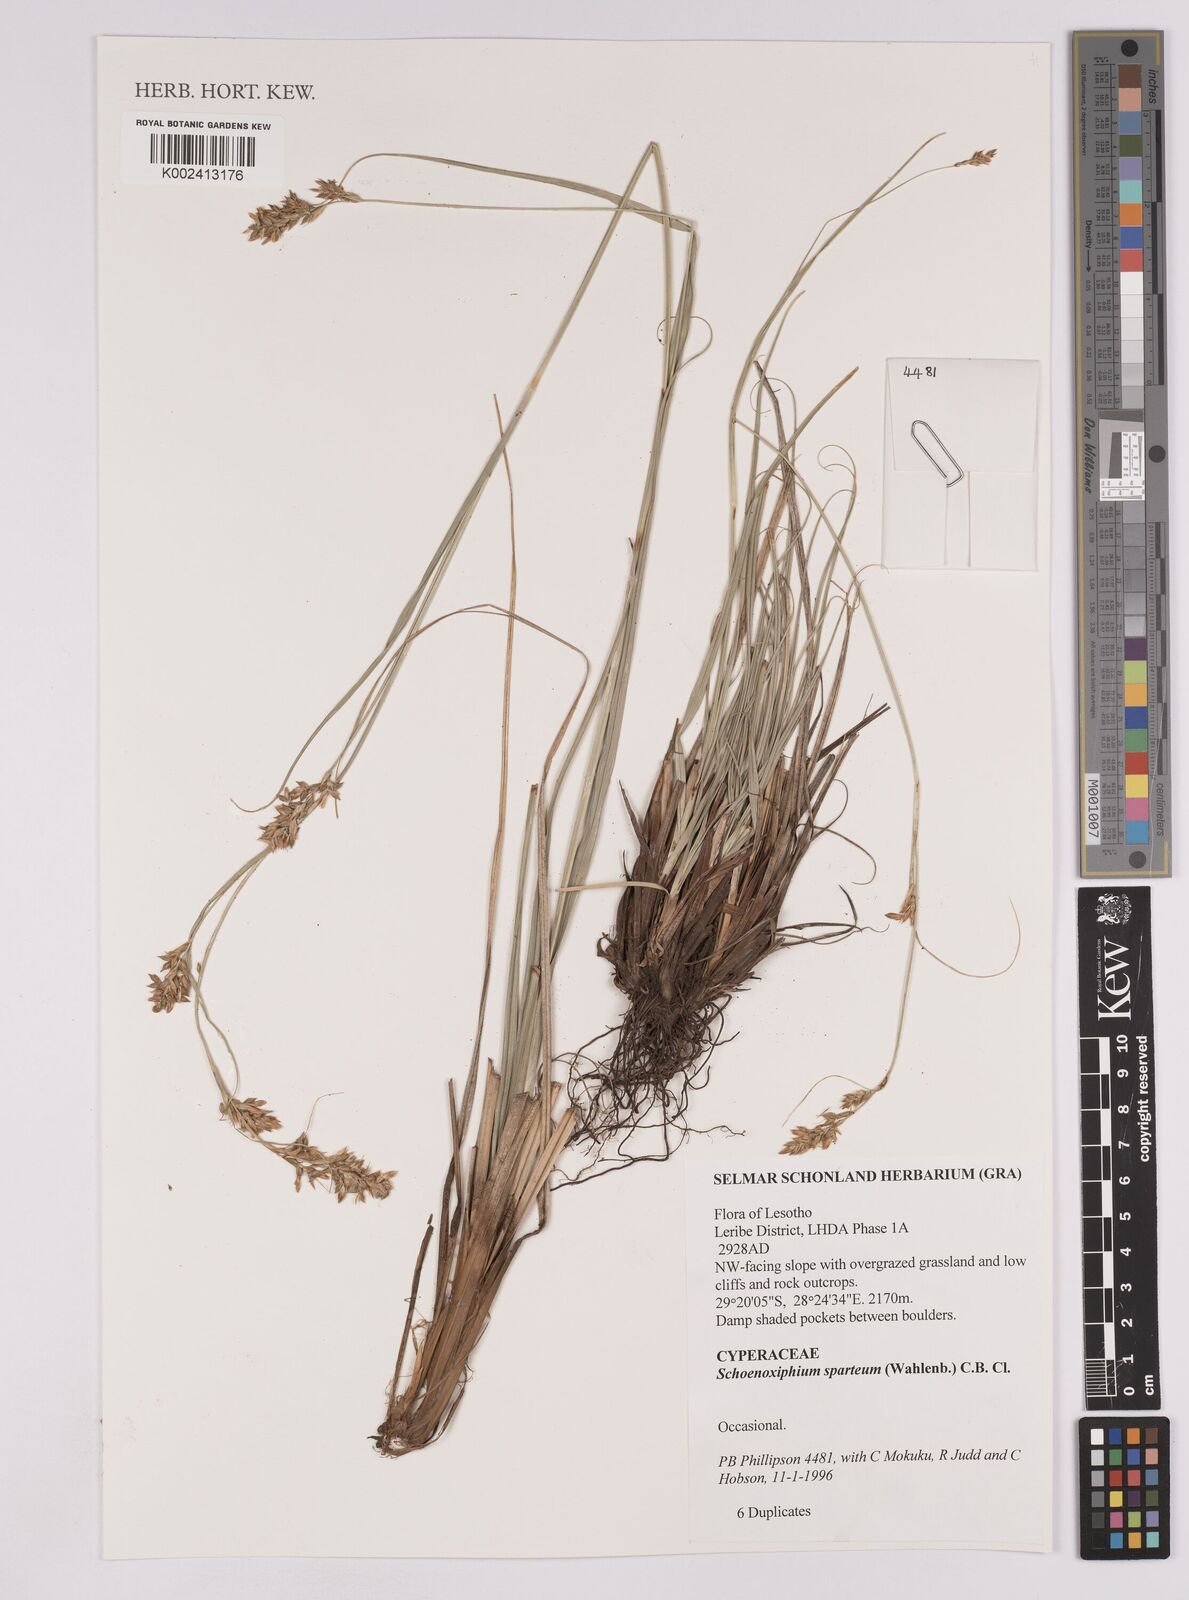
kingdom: Plantae
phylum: Tracheophyta
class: Liliopsida
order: Poales
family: Cyperaceae
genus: Carex
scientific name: Carex spartea
